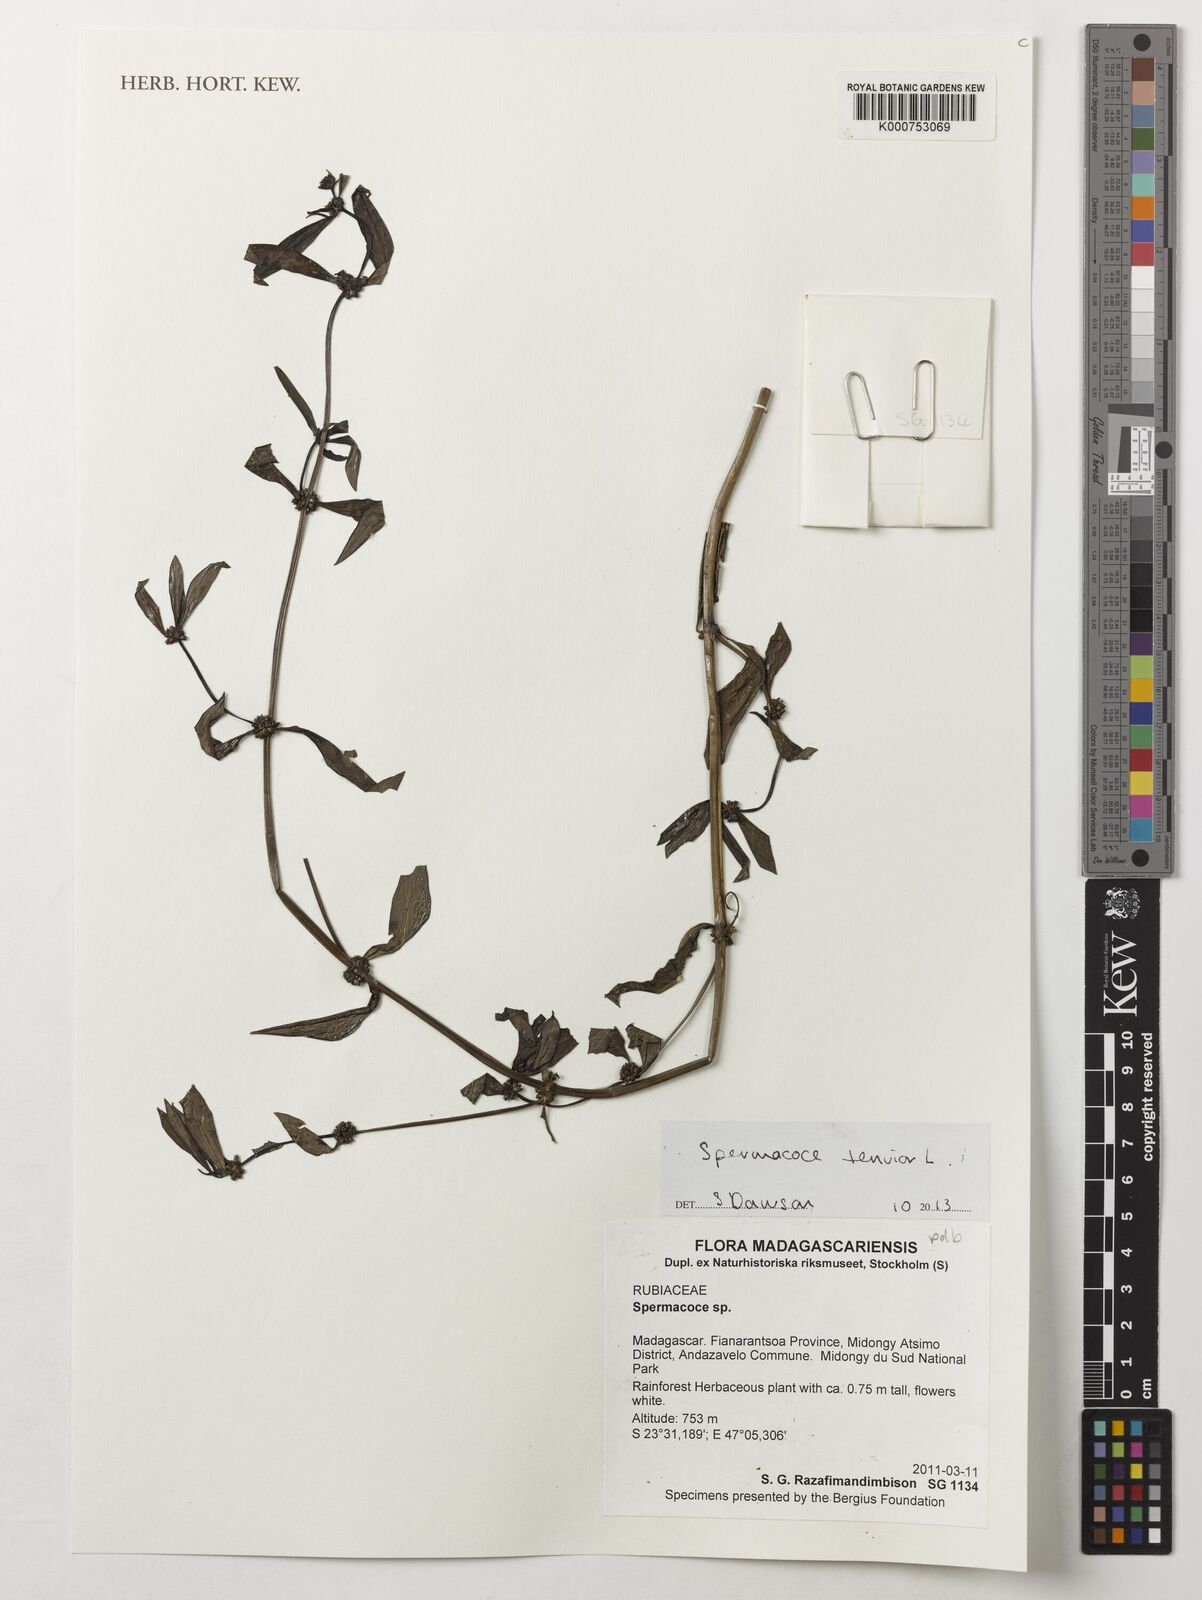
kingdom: Plantae
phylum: Tracheophyta
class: Magnoliopsida
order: Gentianales
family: Rubiaceae
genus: Spermacoce
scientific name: Spermacoce tenuior
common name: River false buttonweed
